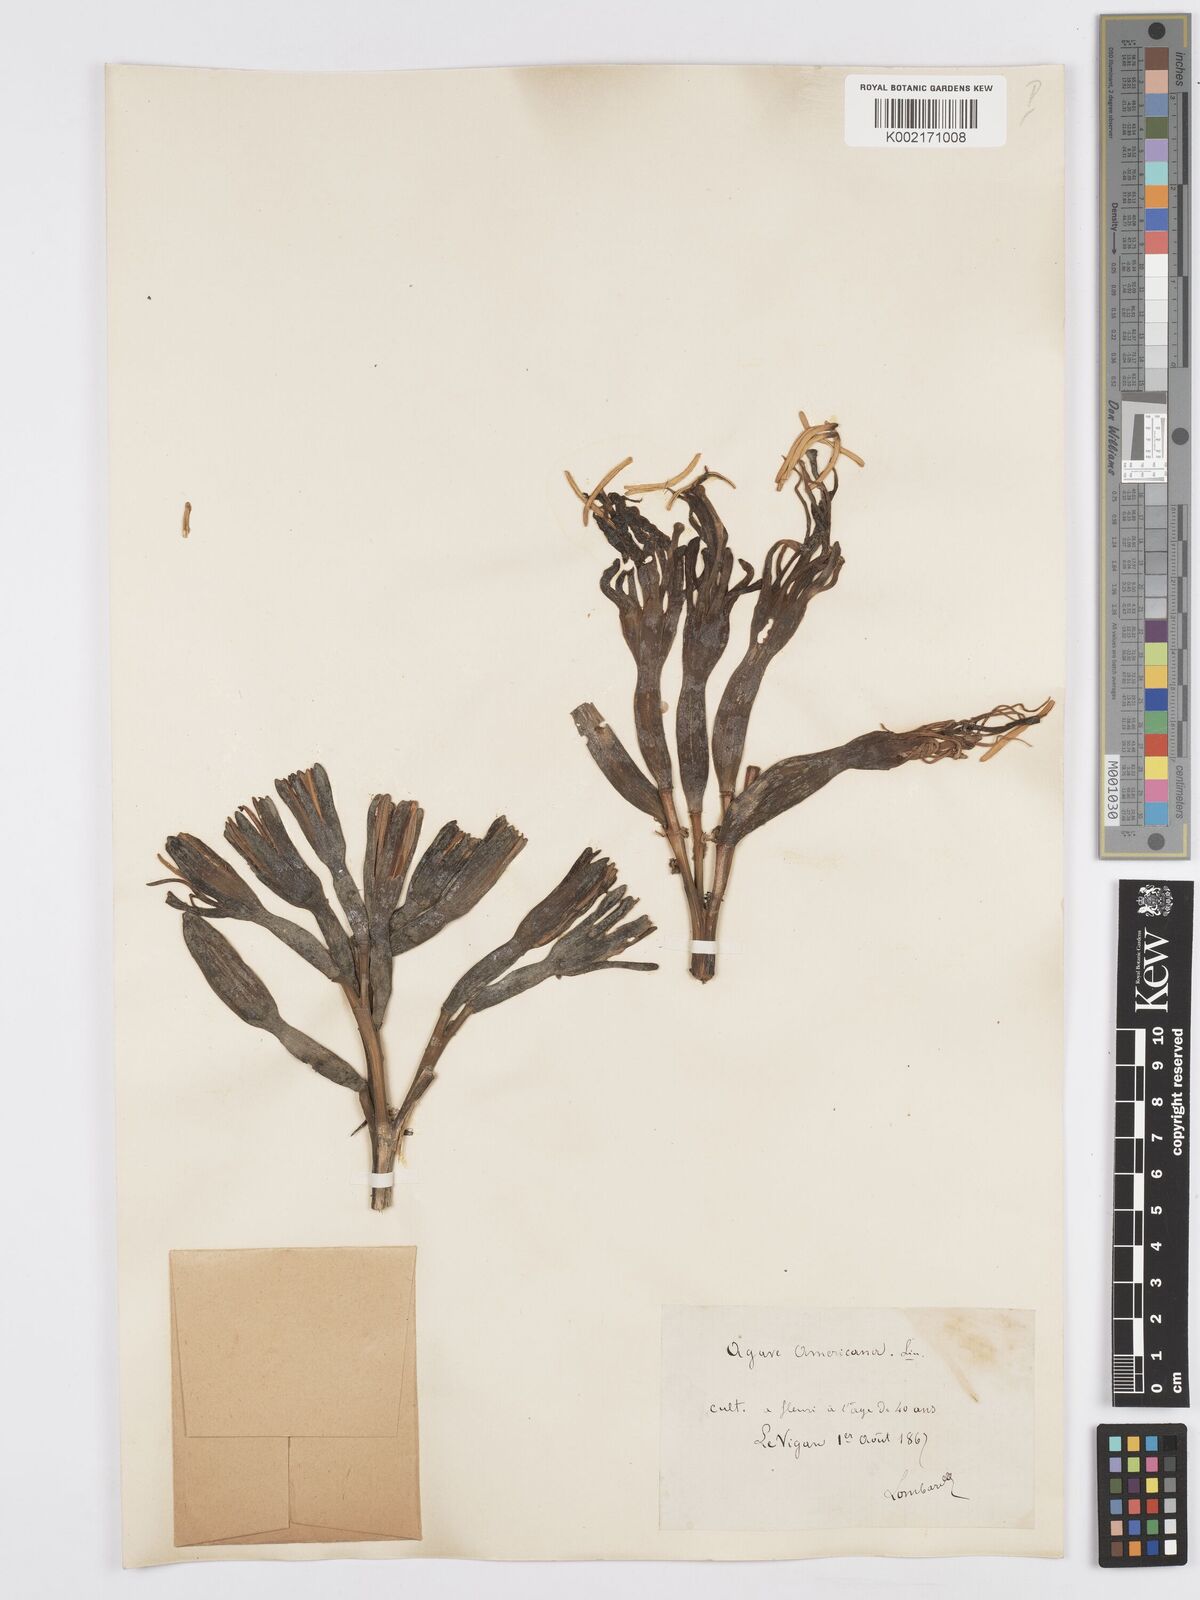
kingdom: Plantae
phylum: Tracheophyta
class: Liliopsida
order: Asparagales
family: Asparagaceae
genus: Agave
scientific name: Agave americana
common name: Centuryplant
